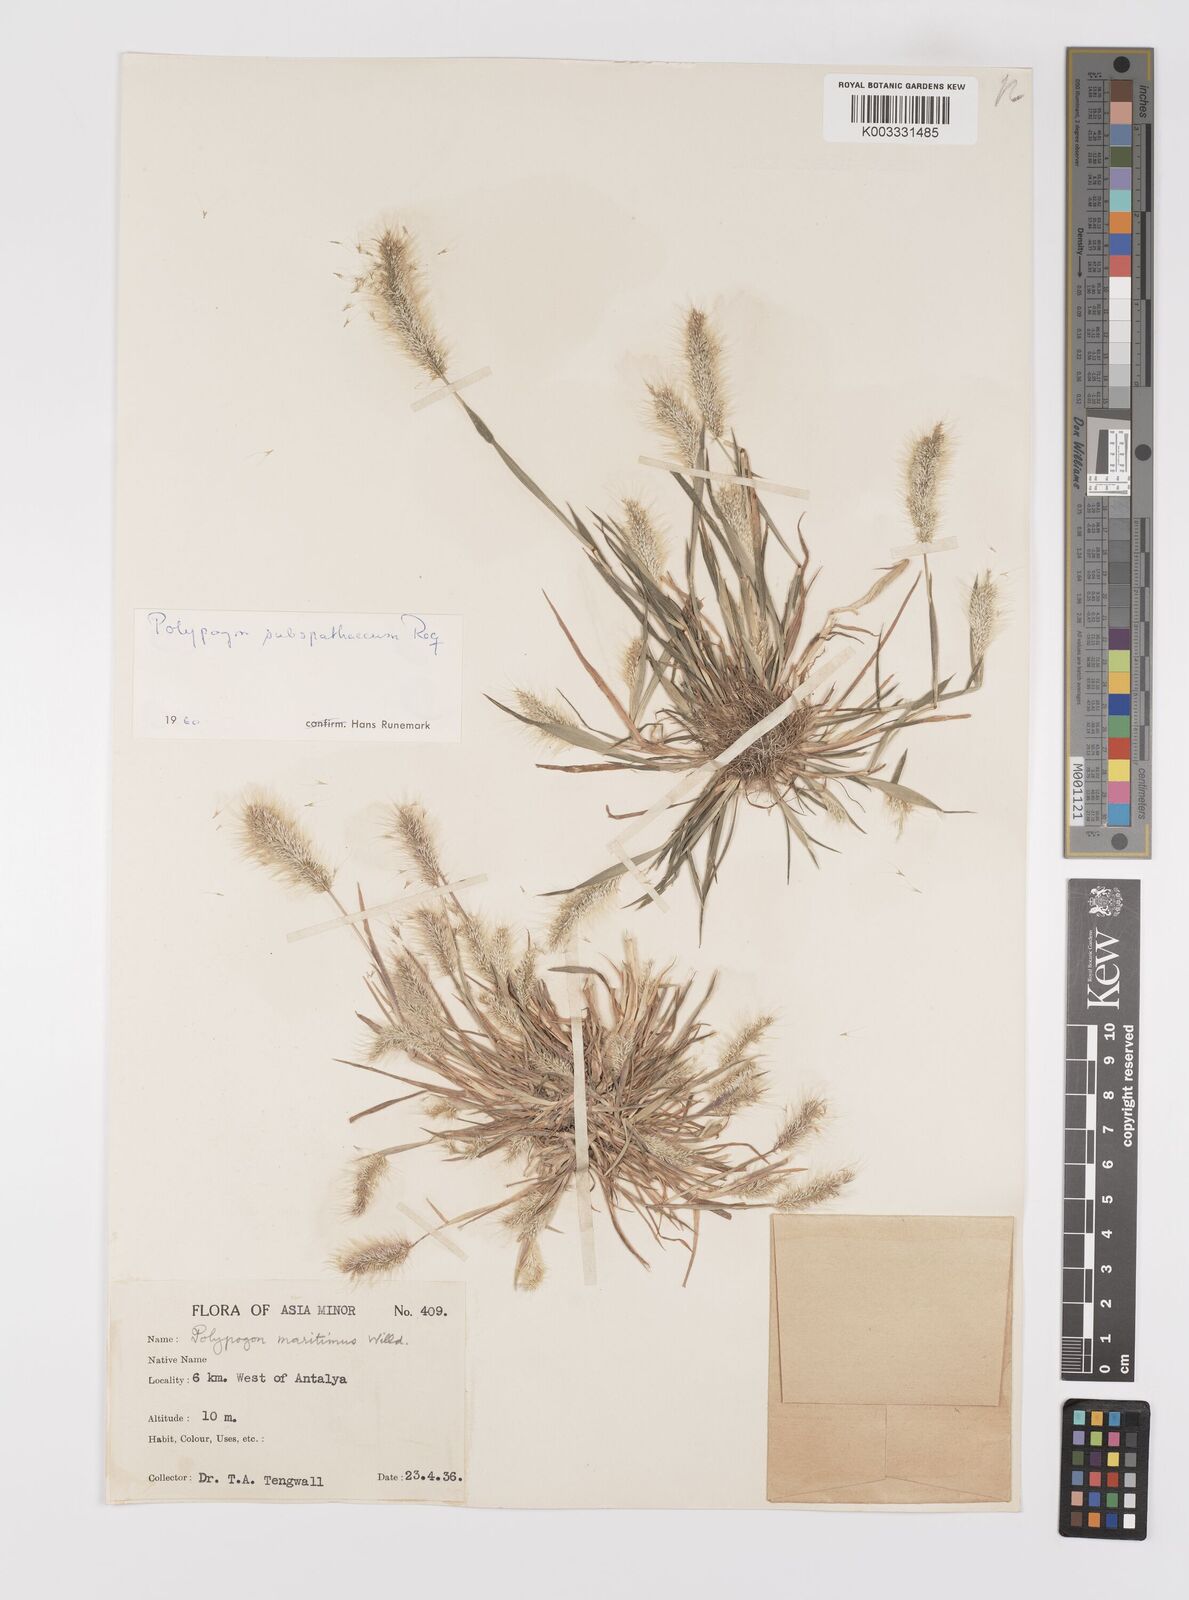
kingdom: Plantae
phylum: Tracheophyta
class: Liliopsida
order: Poales
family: Poaceae
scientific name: Poaceae
